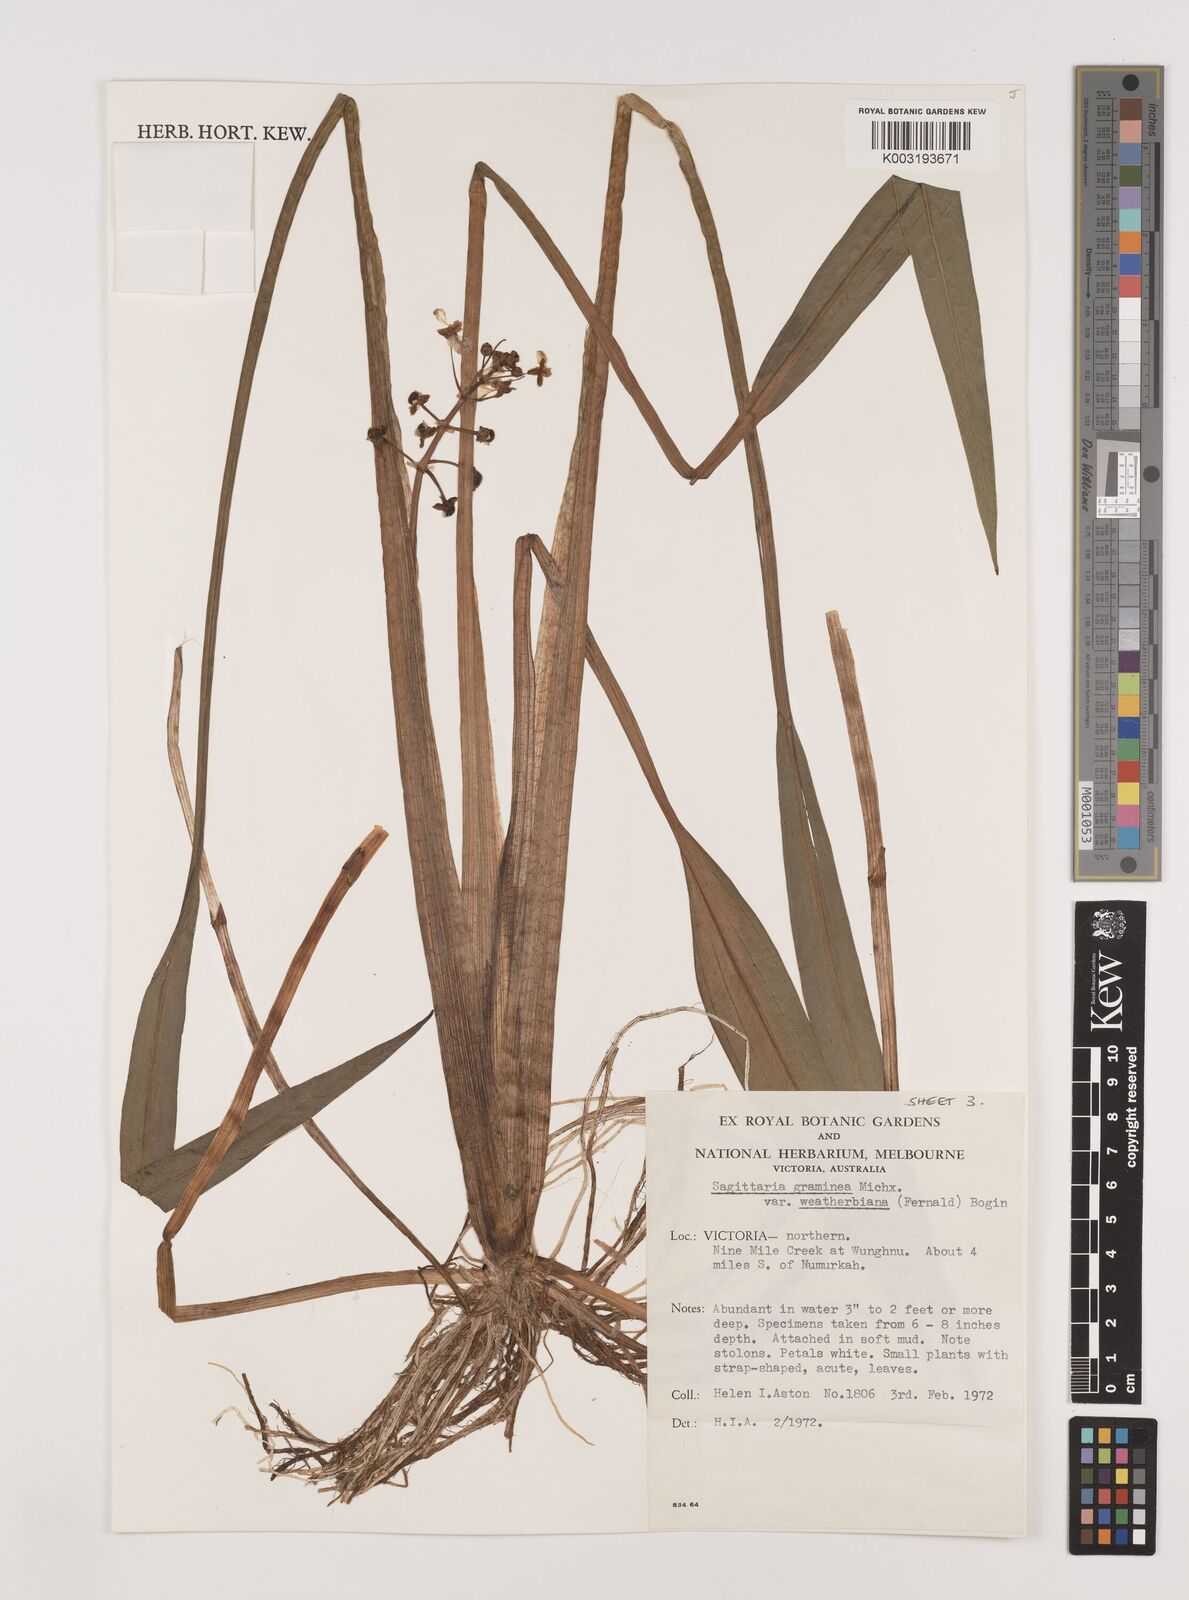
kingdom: Plantae
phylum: Tracheophyta
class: Liliopsida
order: Alismatales
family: Alismataceae
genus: Sagittaria
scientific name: Sagittaria graminea
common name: Grass-leaved arrowhead
